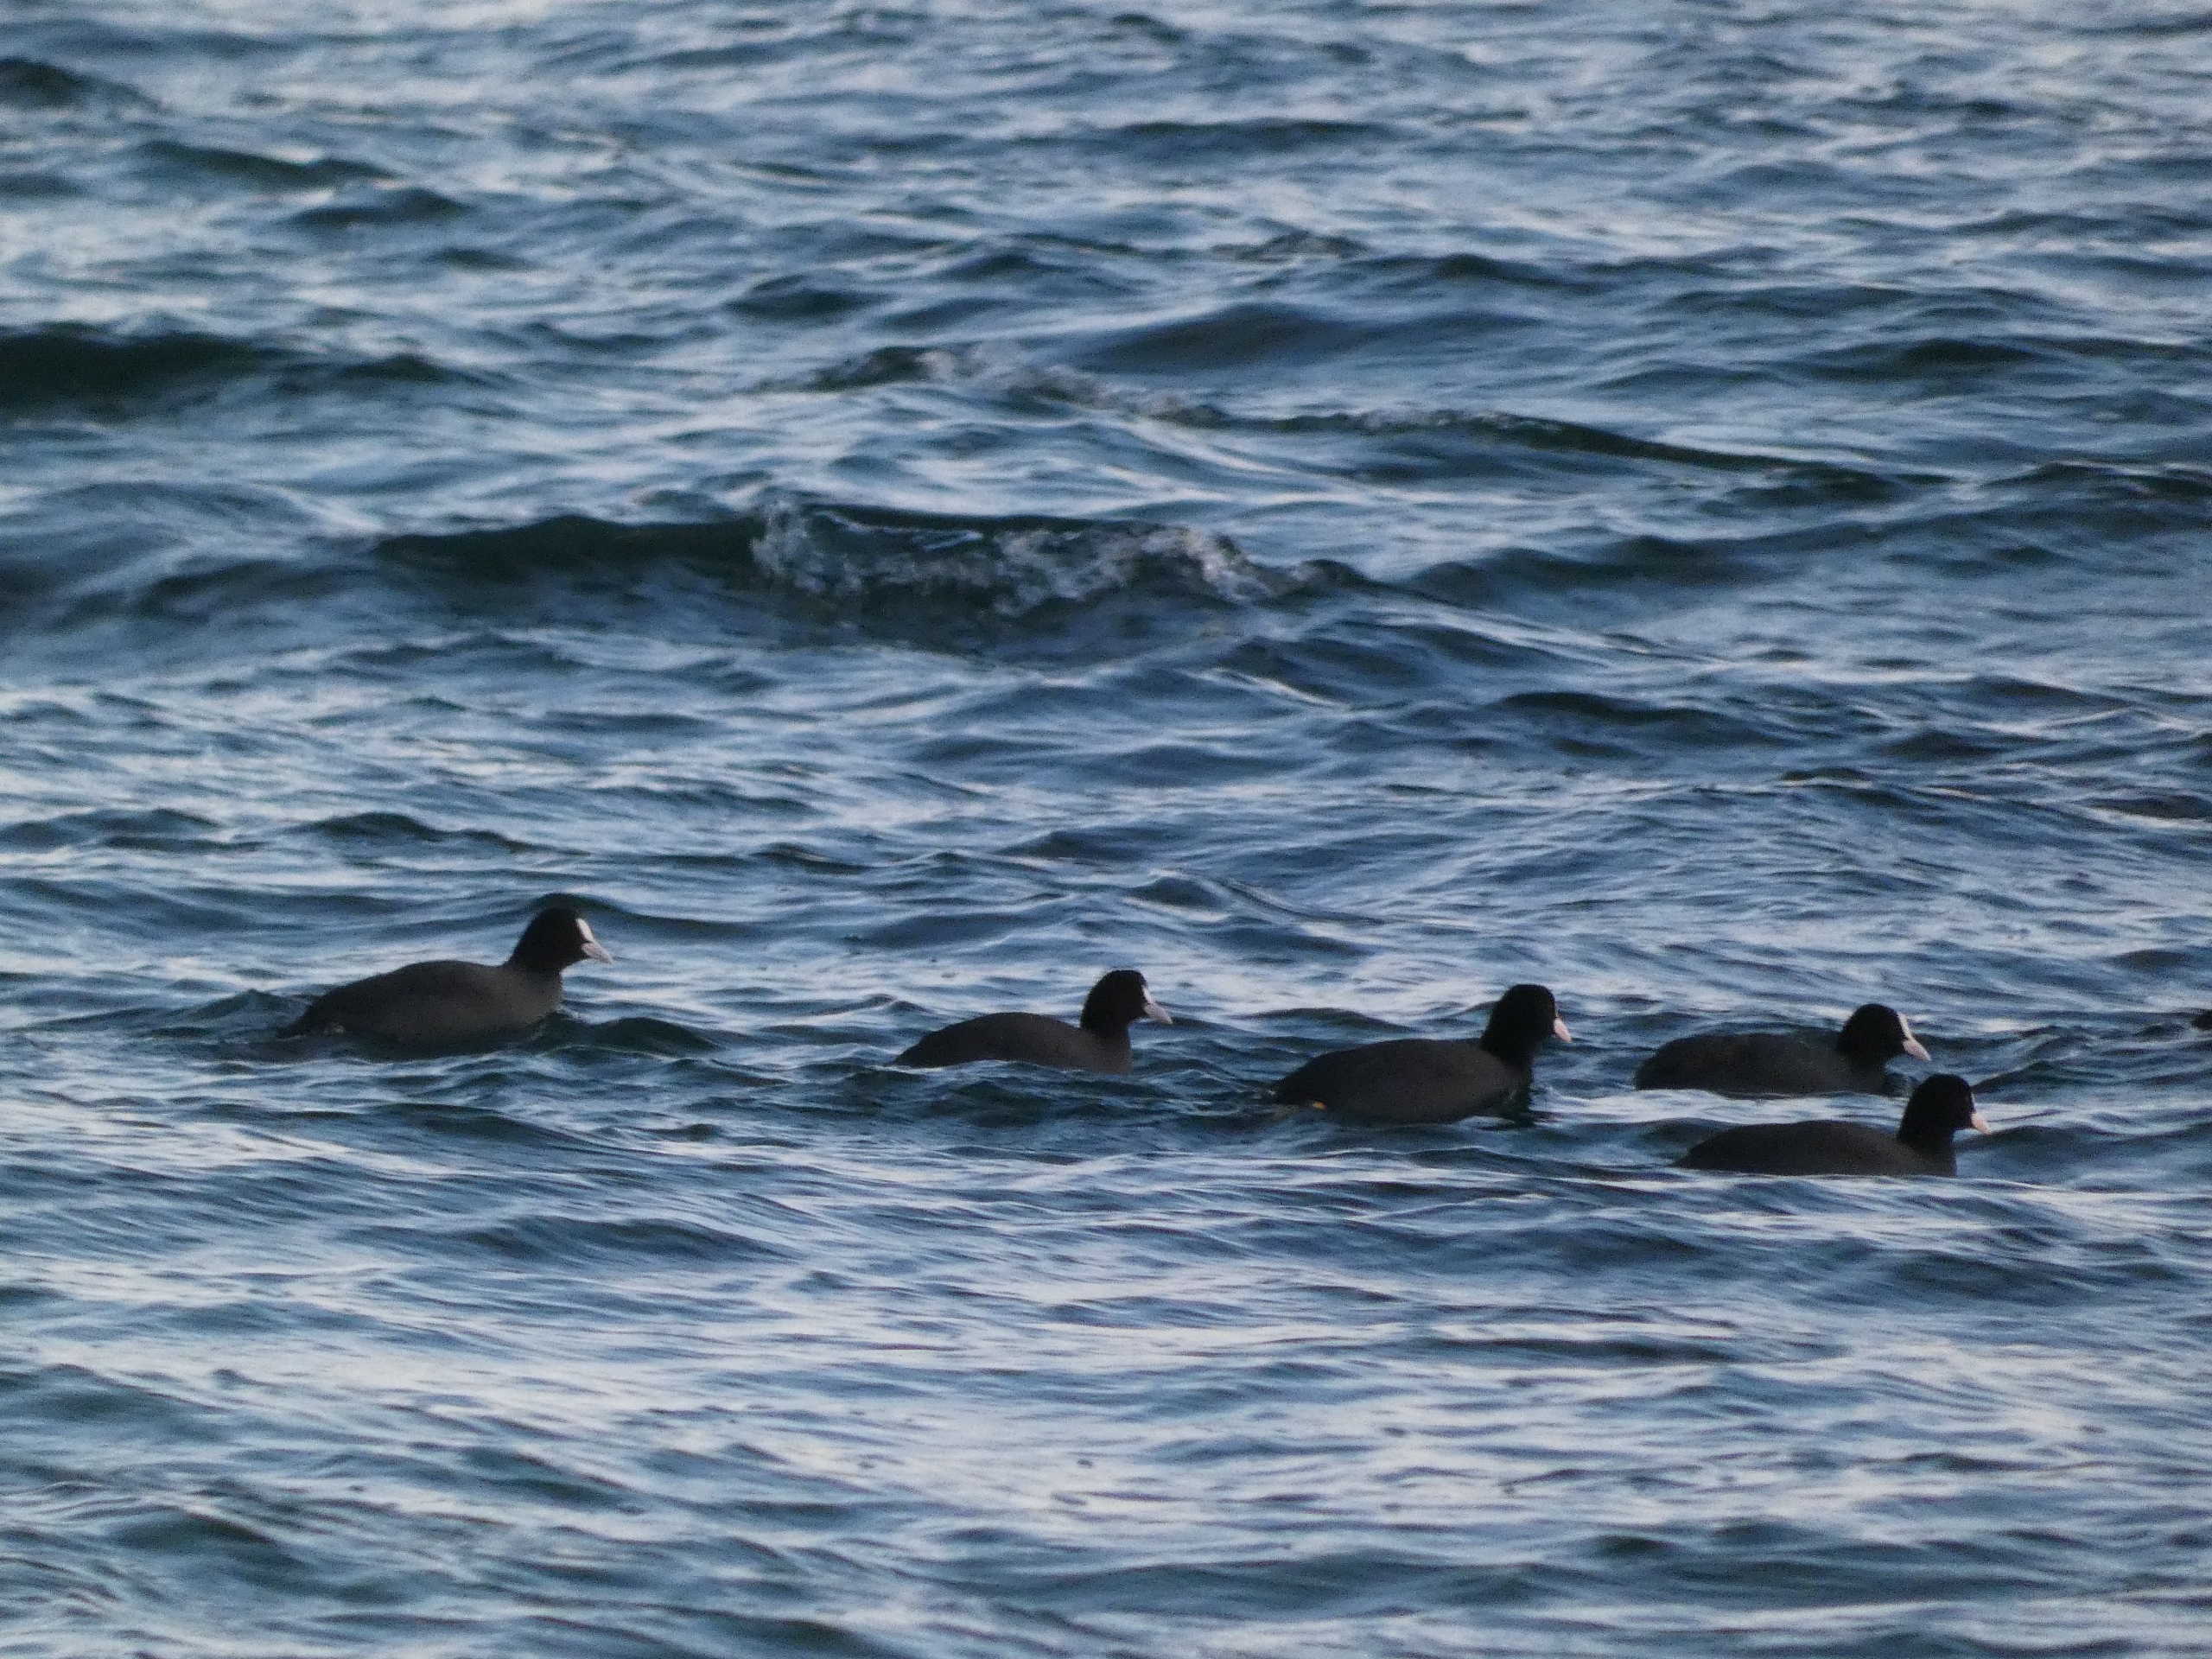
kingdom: Animalia
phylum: Chordata
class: Aves
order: Gruiformes
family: Rallidae
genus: Fulica
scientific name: Fulica atra
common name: Blishøne
